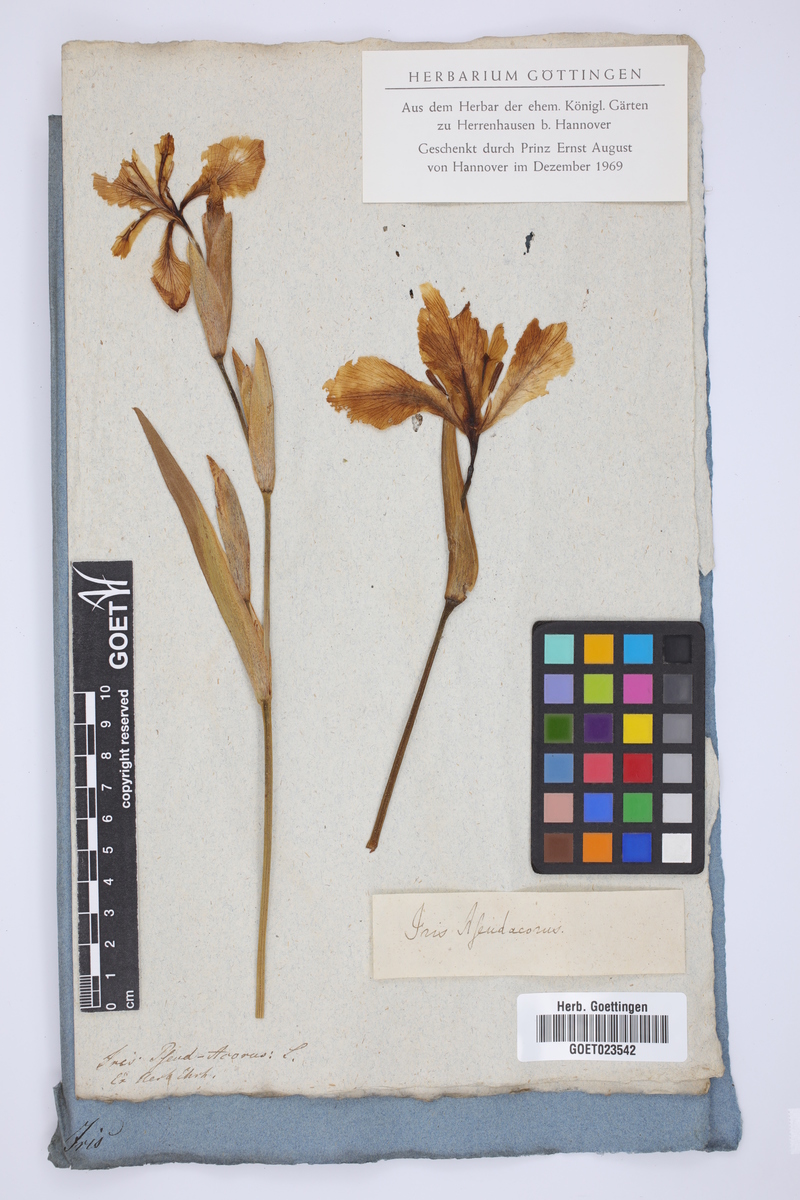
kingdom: Plantae
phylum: Tracheophyta
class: Liliopsida
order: Asparagales
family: Iridaceae
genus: Iris
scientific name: Iris pseudacorus
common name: Yellow flag
